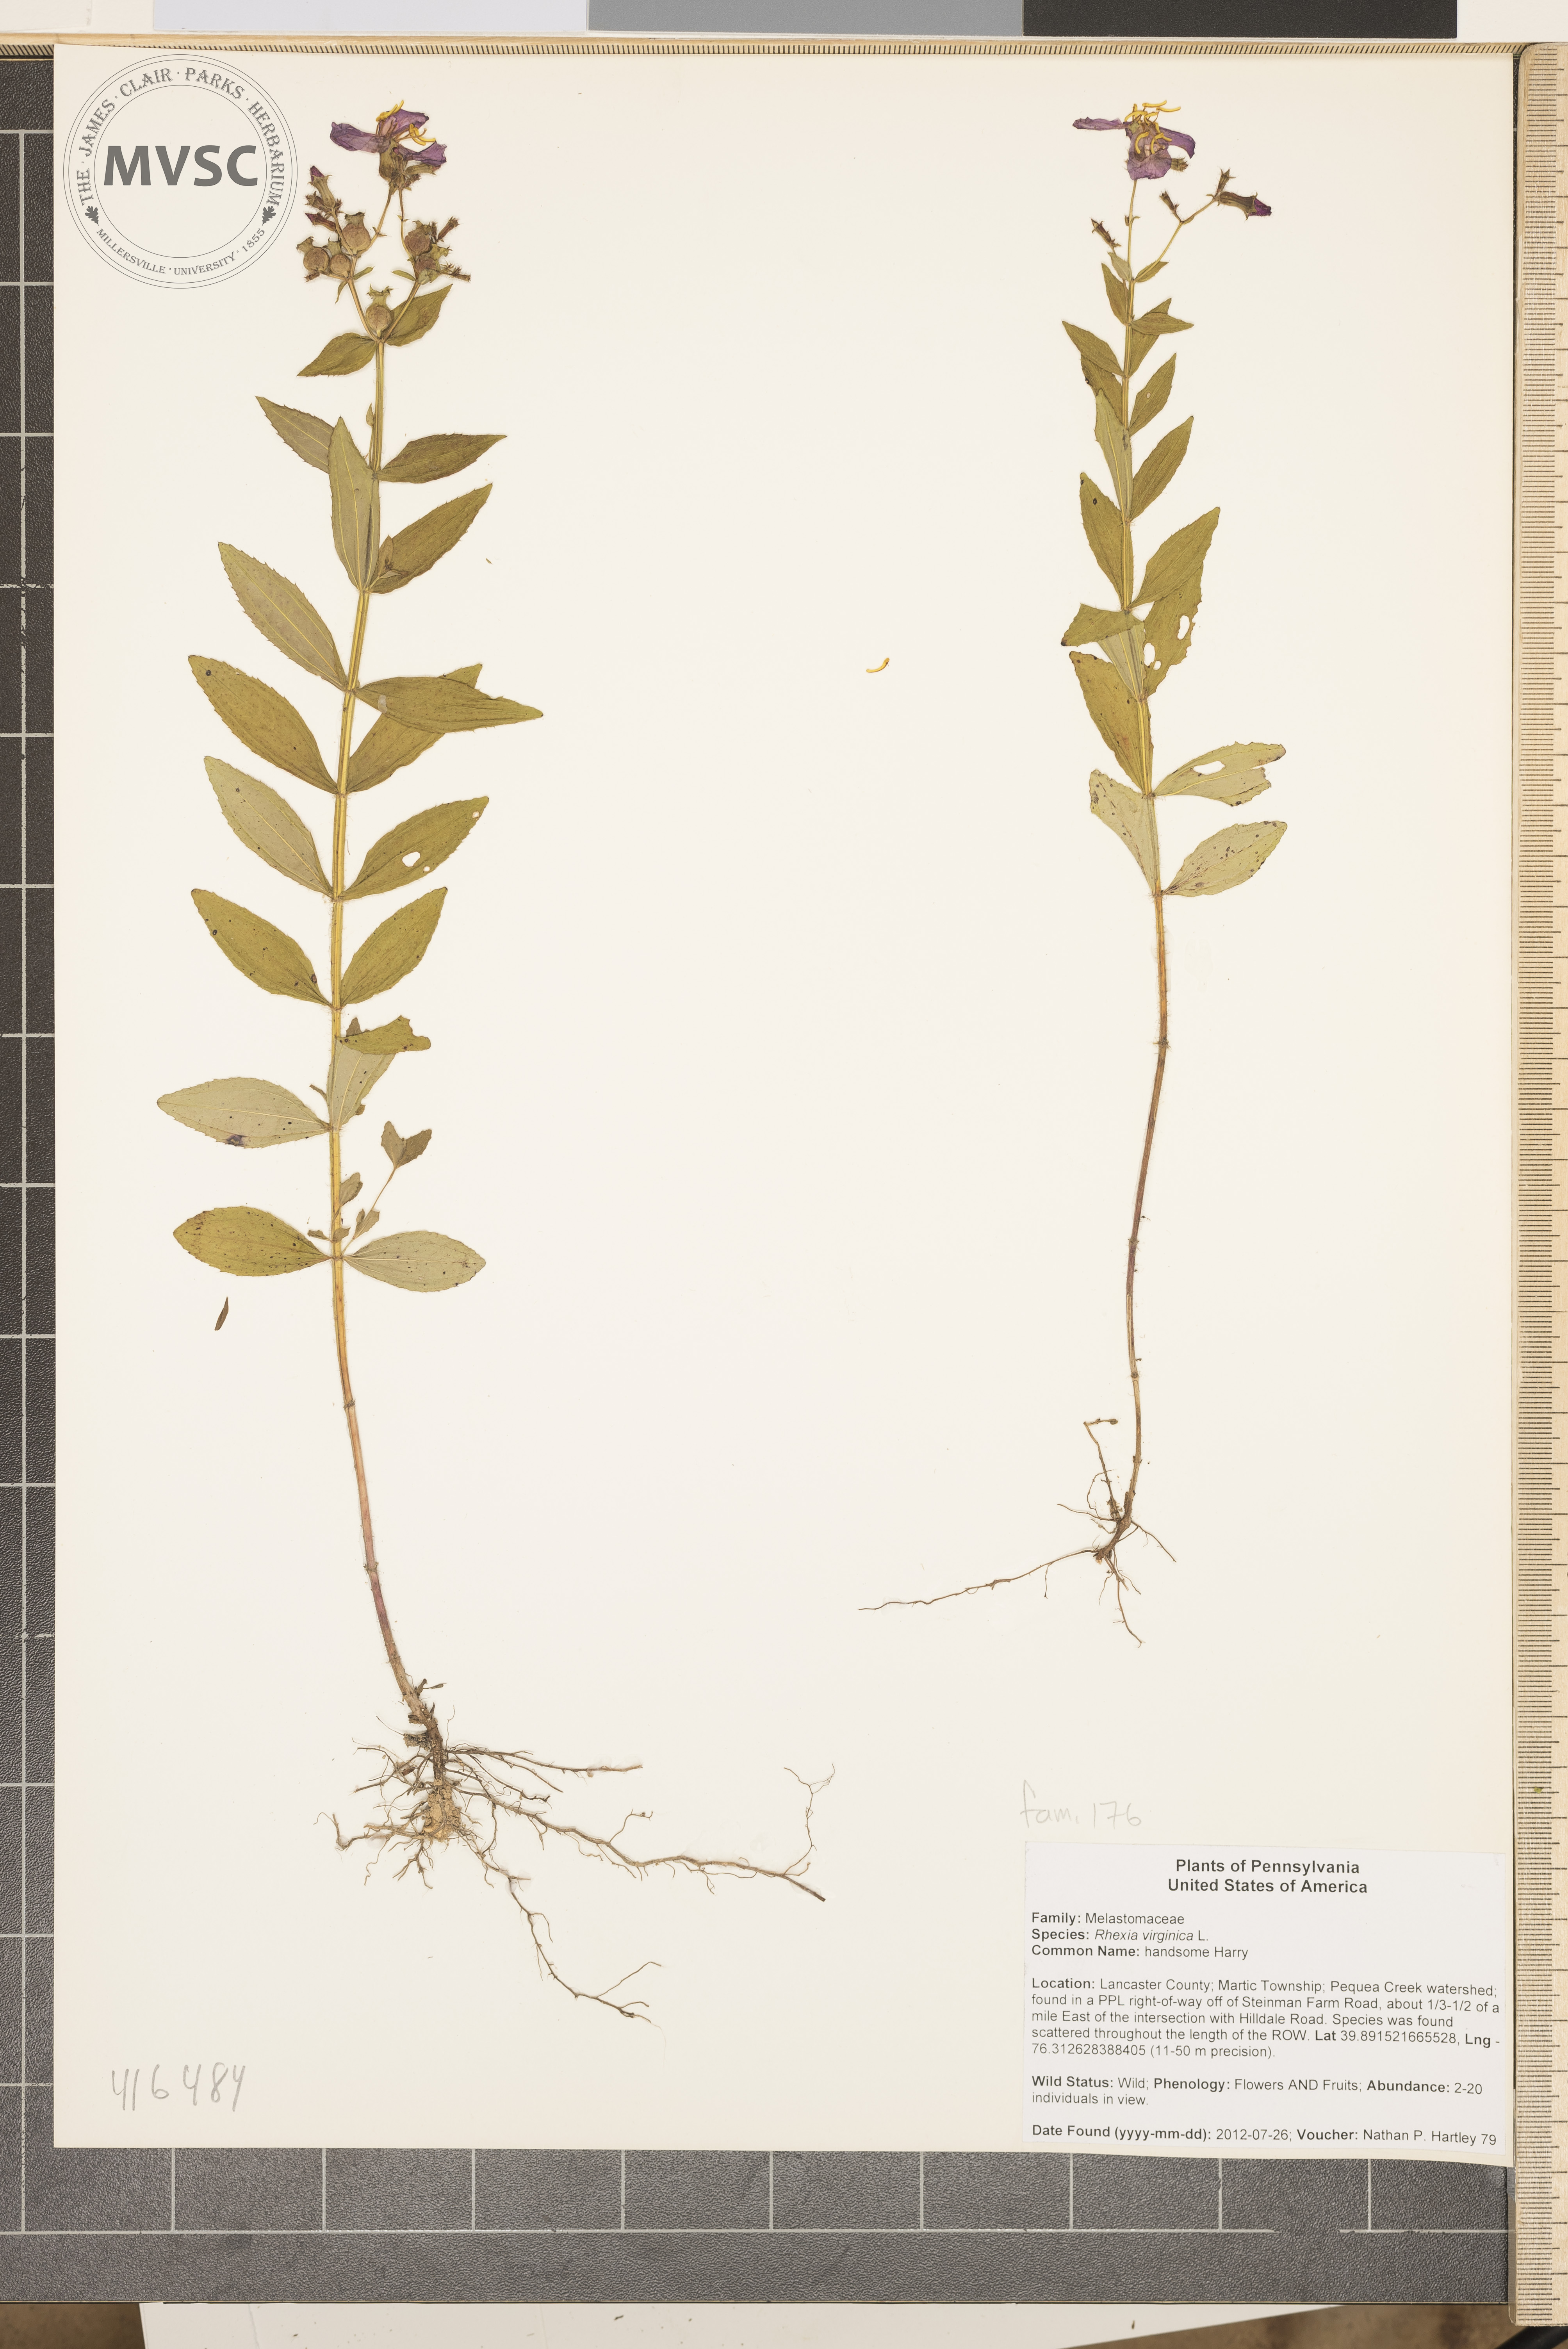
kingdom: Plantae
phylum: Tracheophyta
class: Magnoliopsida
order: Myrtales
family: Melastomataceae
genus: Rhexia
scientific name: Rhexia virginica
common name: handsome Harry
